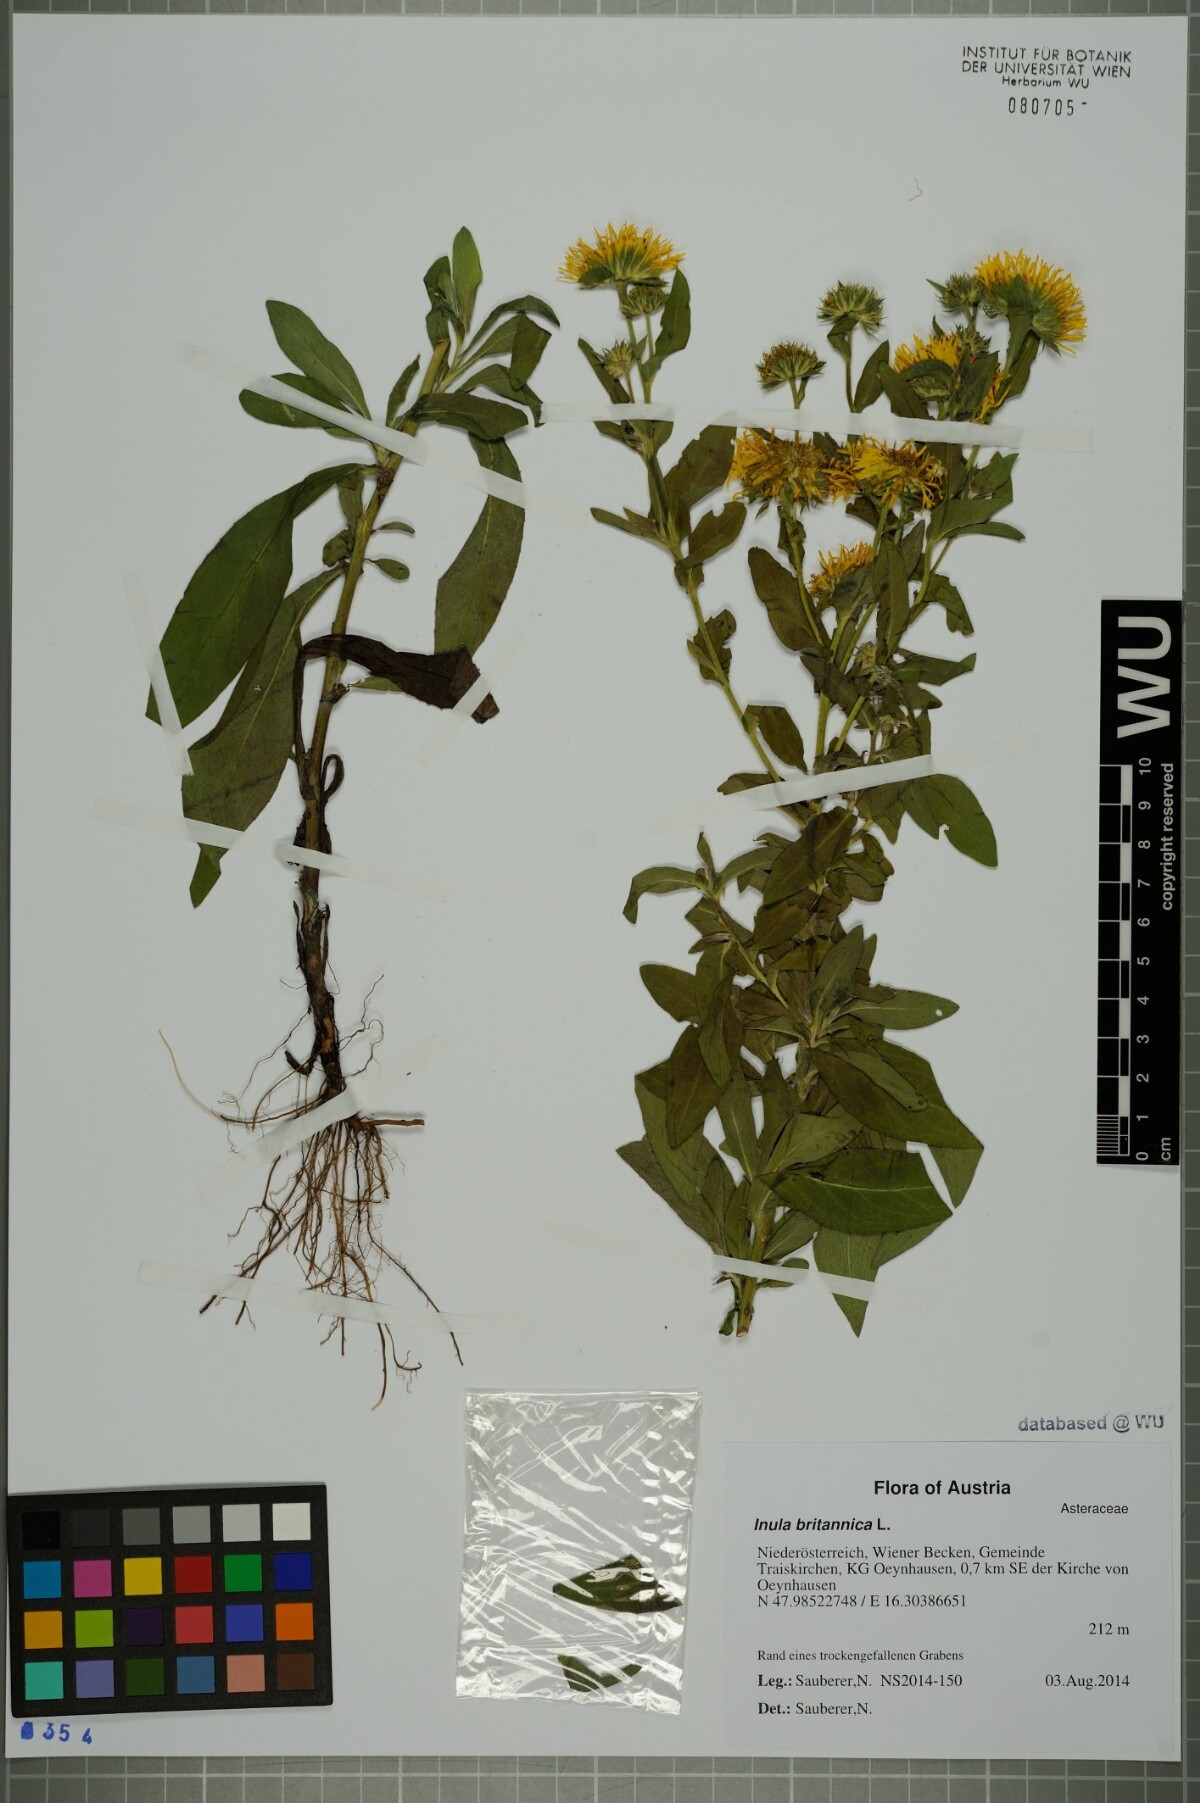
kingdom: Plantae
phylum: Tracheophyta
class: Magnoliopsida
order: Asterales
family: Asteraceae
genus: Pentanema
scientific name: Pentanema britannicum
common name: British elecampane
